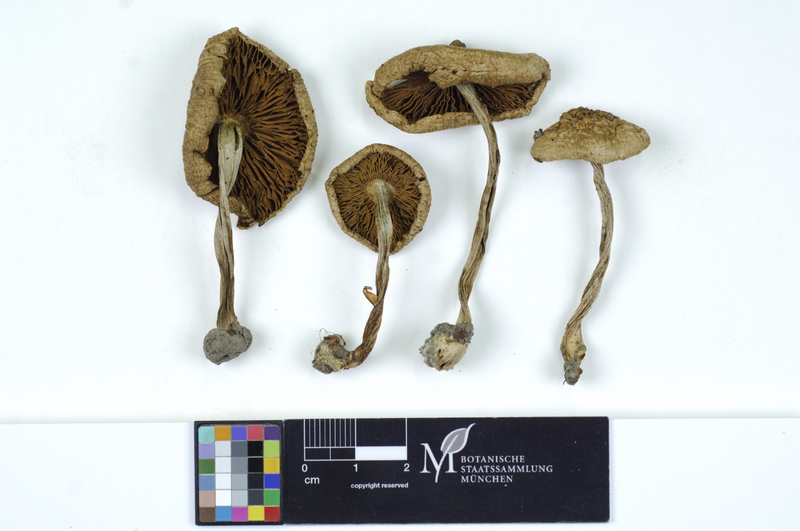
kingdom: Fungi
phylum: Basidiomycota
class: Agaricomycetes
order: Agaricales
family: Inocybaceae
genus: Inocybe
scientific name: Inocybe corydalina
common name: Greenflush fibrecap
